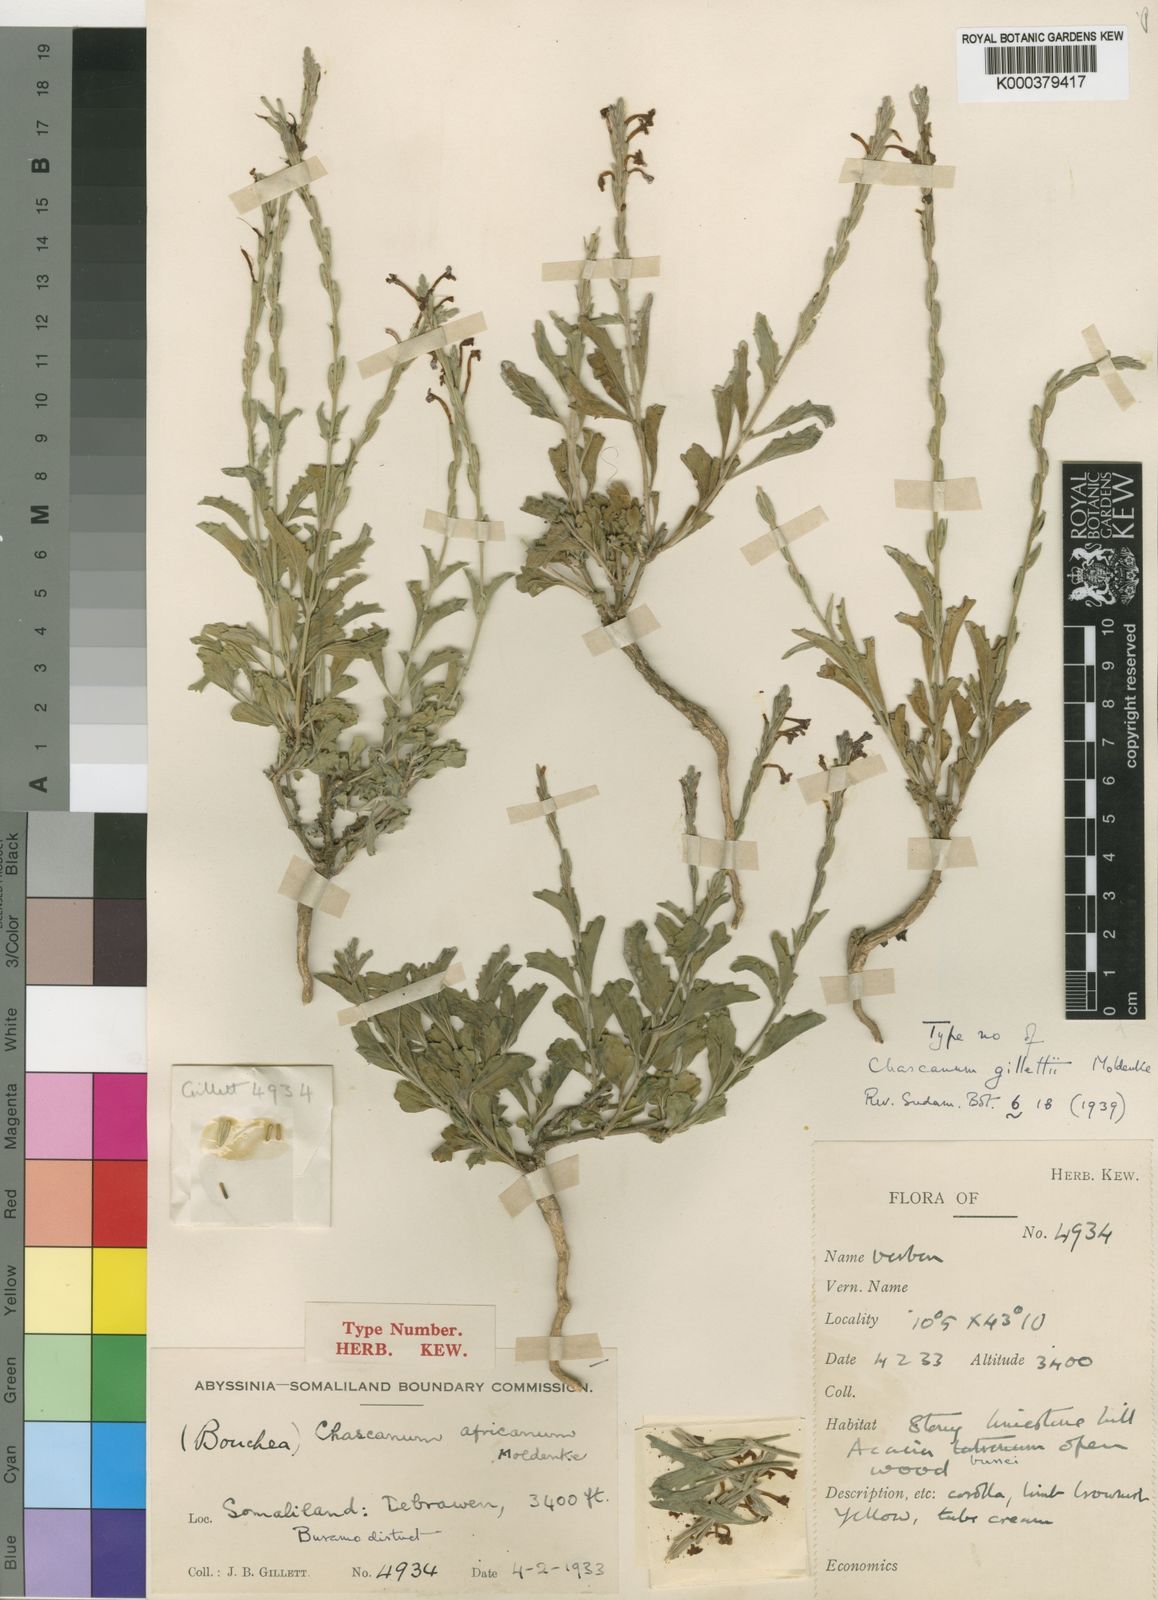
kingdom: Plantae
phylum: Tracheophyta
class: Magnoliopsida
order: Lamiales
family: Verbenaceae
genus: Chascanum
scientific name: Chascanum gillettii
